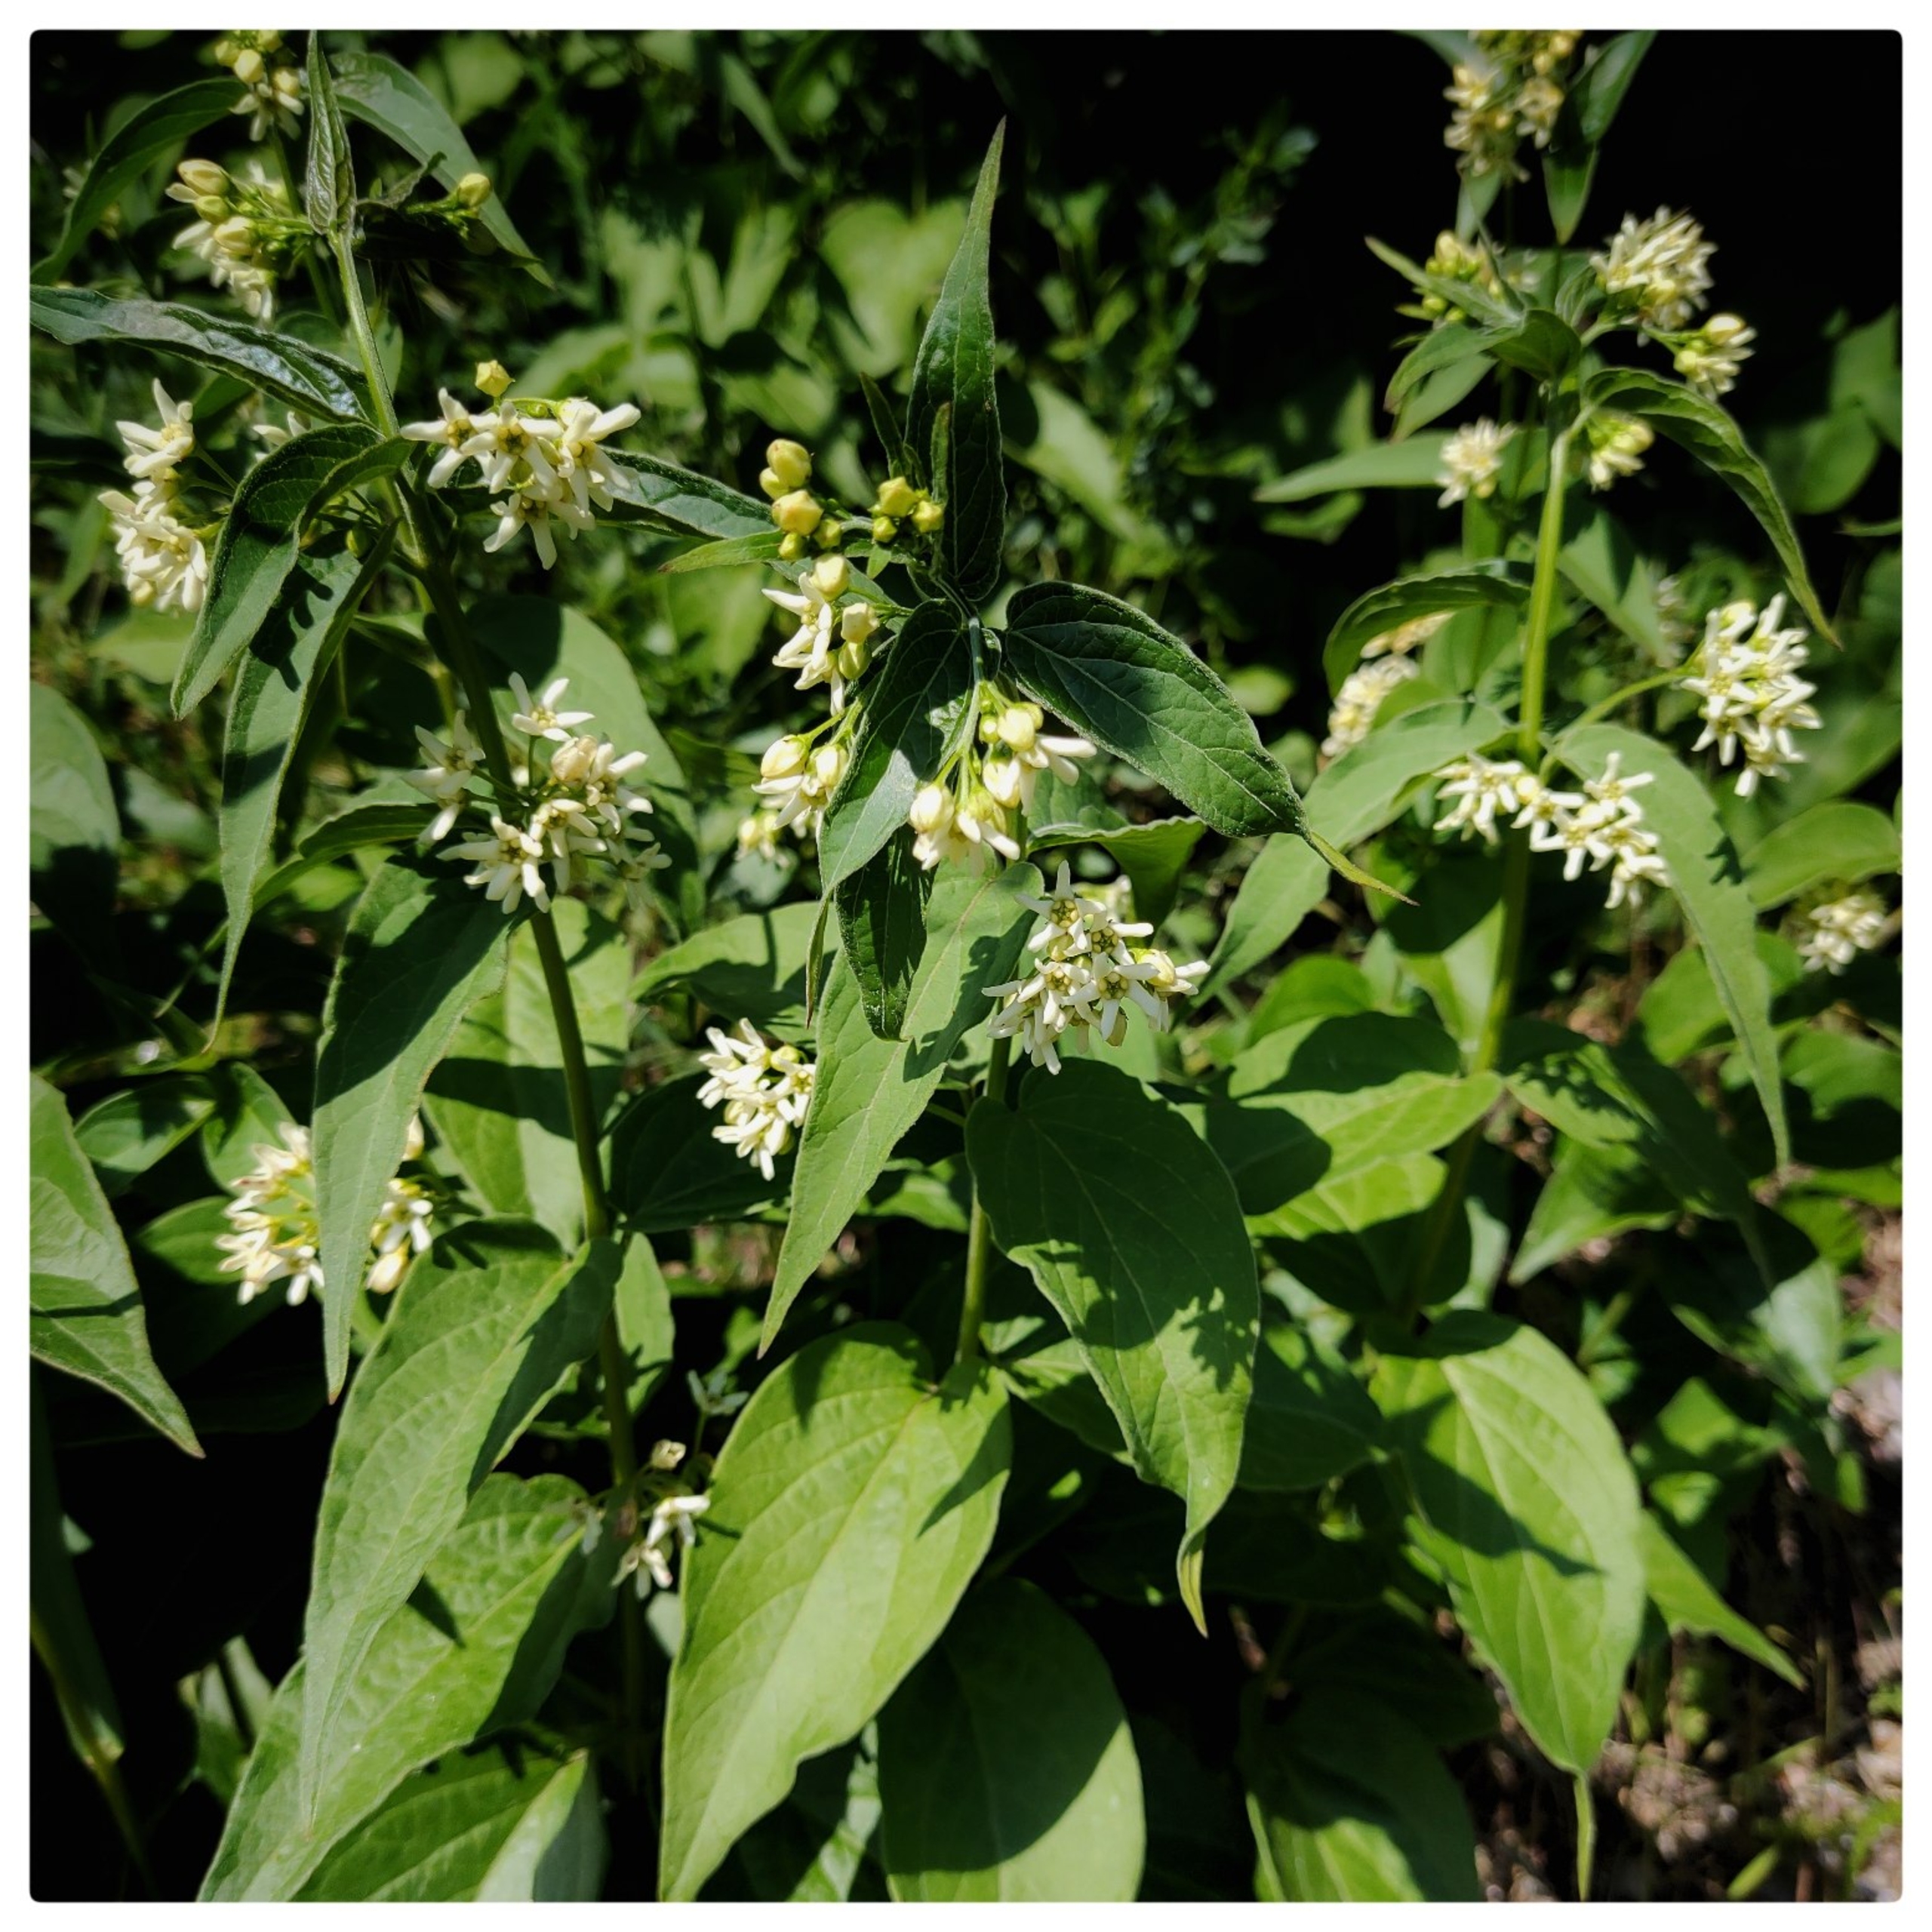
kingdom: Plantae
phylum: Tracheophyta
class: Magnoliopsida
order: Gentianales
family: Apocynaceae
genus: Vincetoxicum
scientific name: Vincetoxicum hirundinaria
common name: Svalerod
